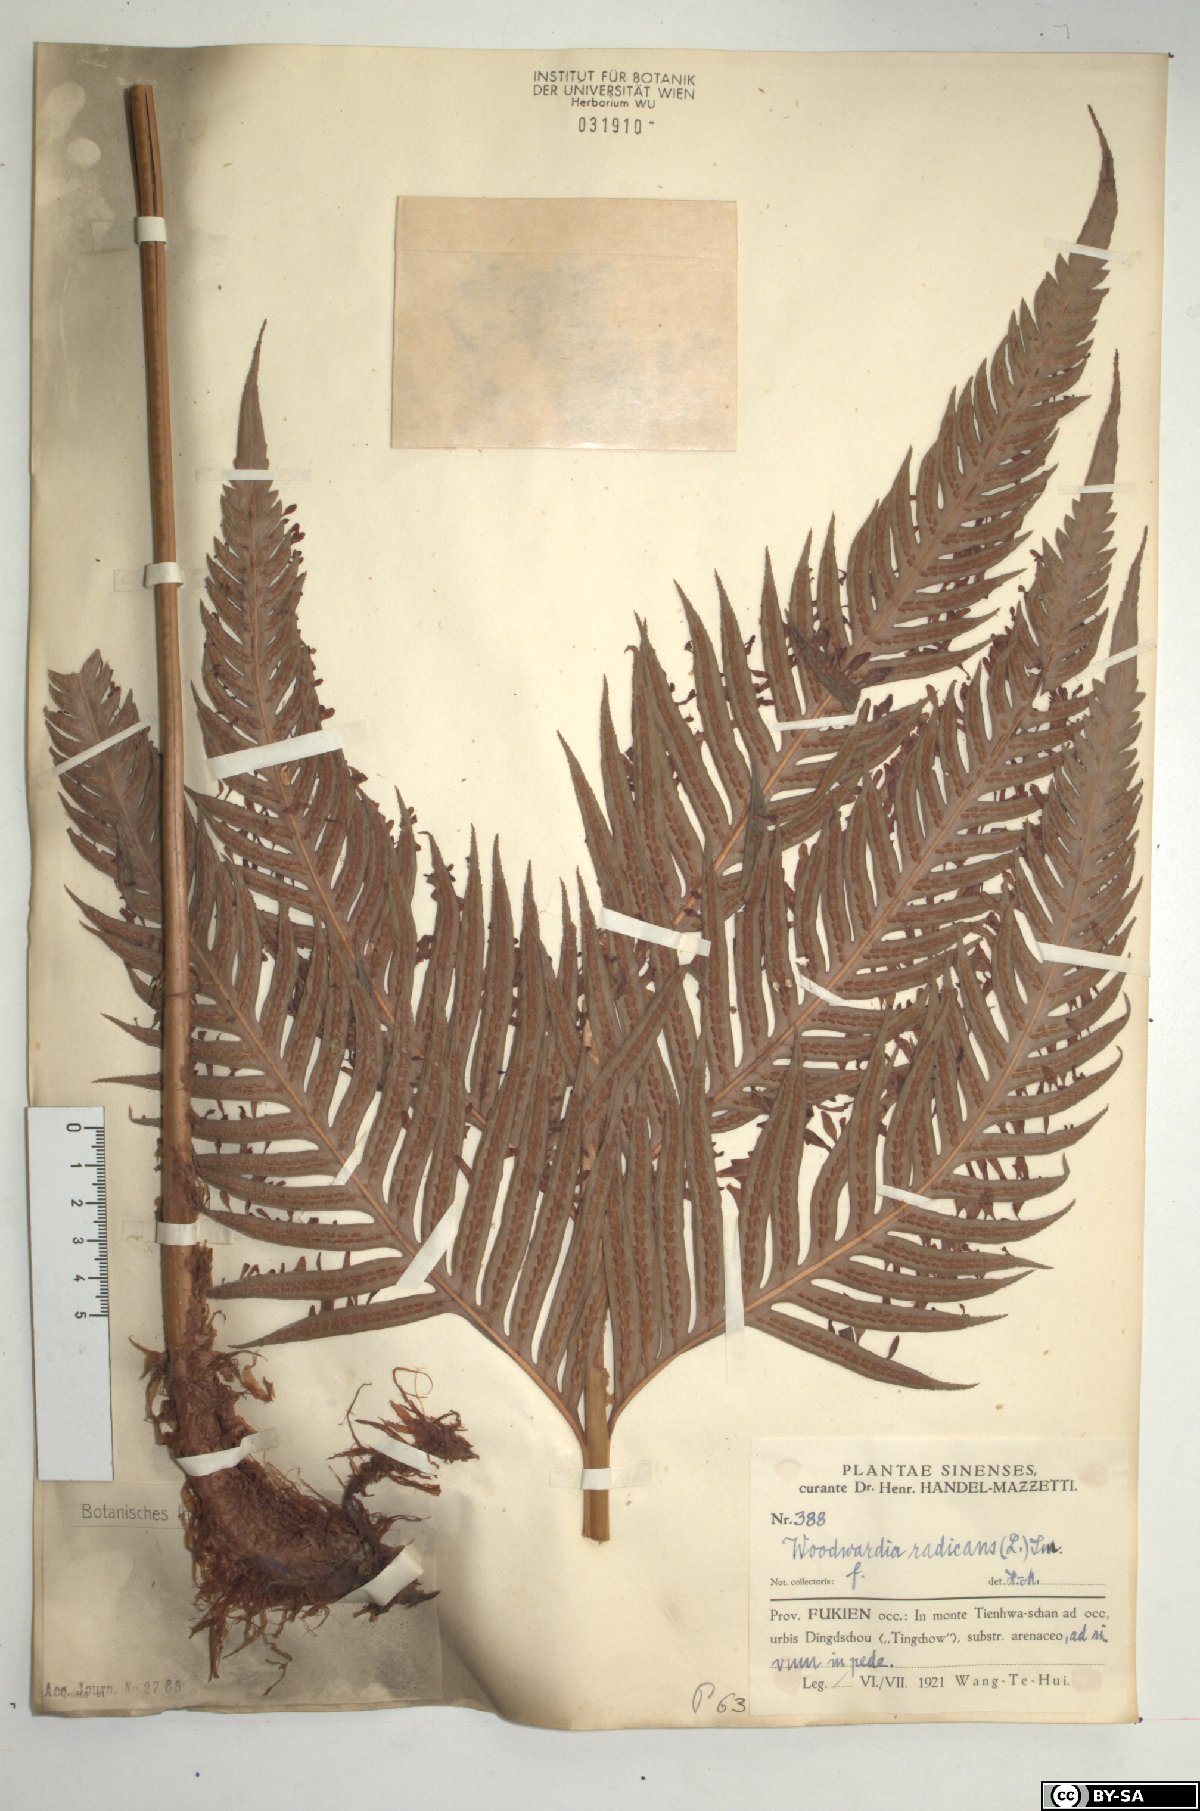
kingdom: Plantae
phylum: Tracheophyta
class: Polypodiopsida
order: Polypodiales
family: Blechnaceae
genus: Woodwardia
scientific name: Woodwardia radicans
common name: Rooting chainfern
